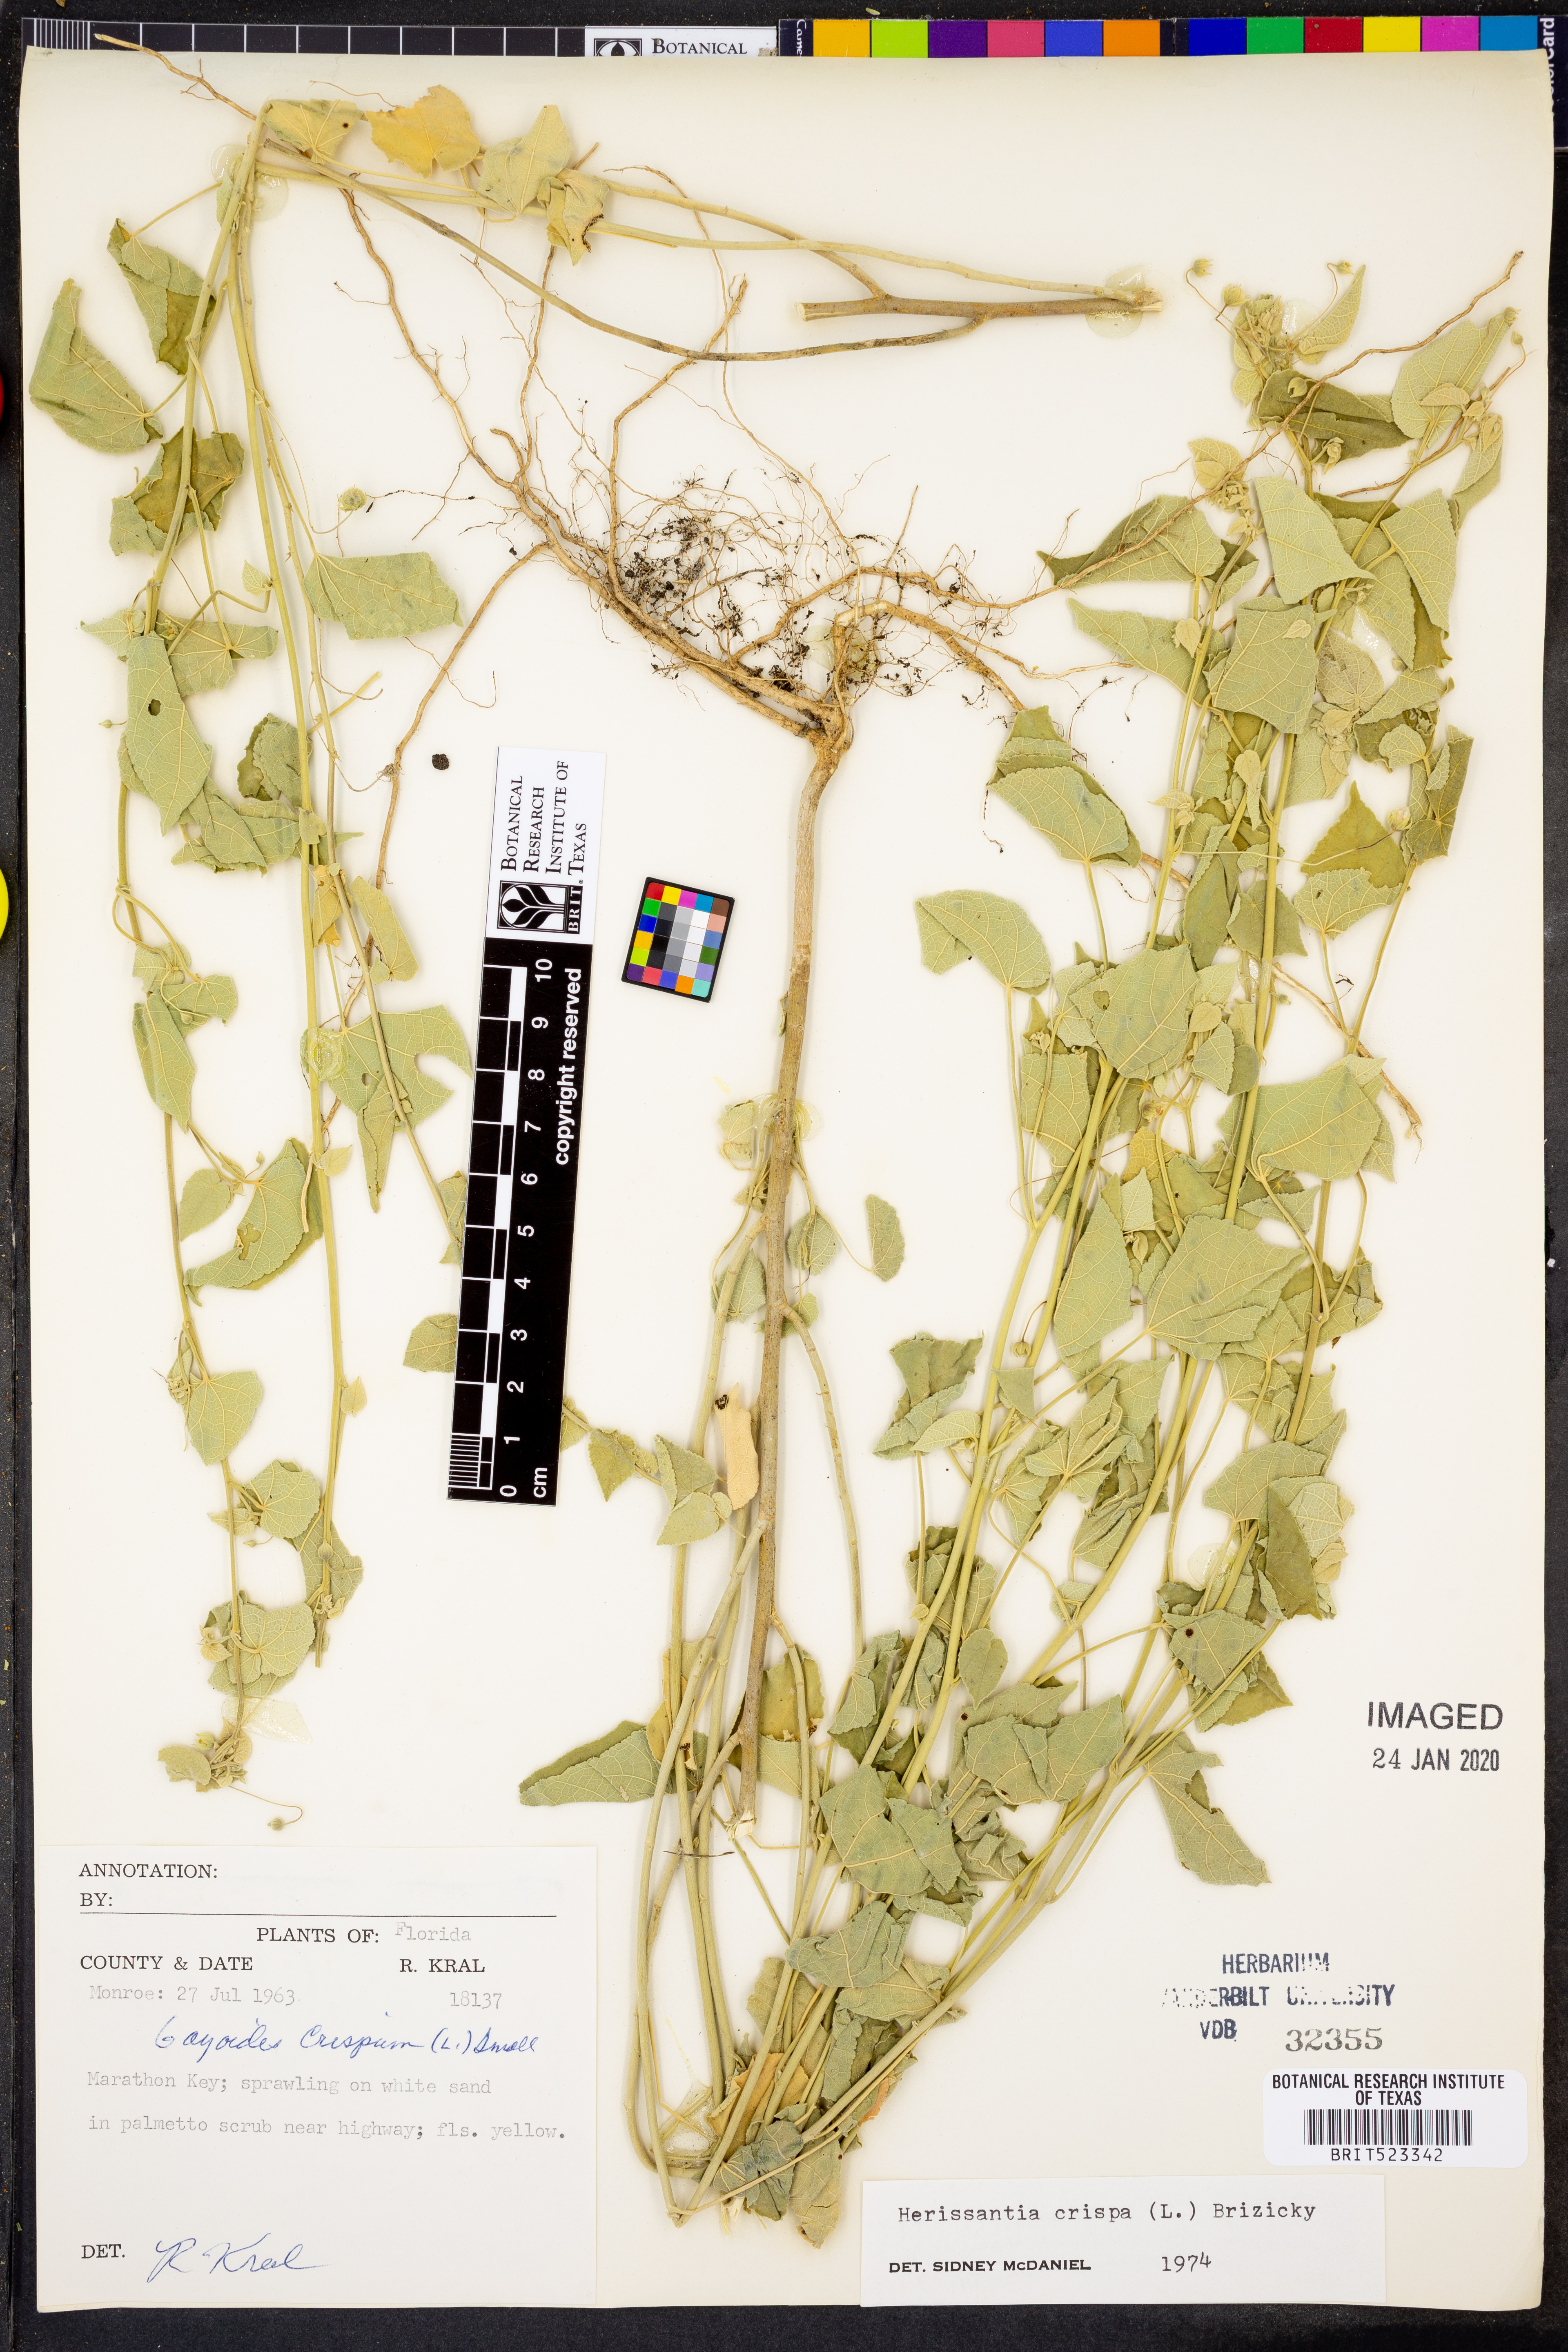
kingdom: Plantae
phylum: Tracheophyta
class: Magnoliopsida
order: Malvales
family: Malvaceae
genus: Herissantia
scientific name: Herissantia crispa
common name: Bladdermallow
